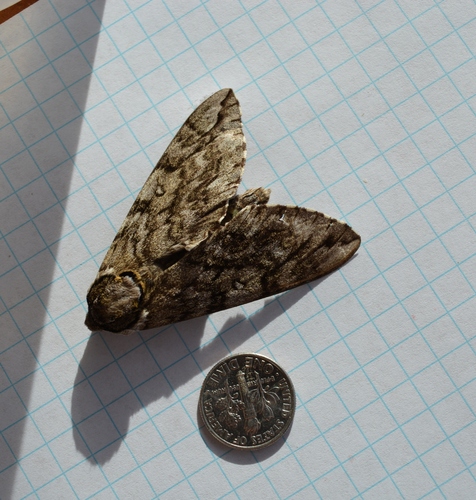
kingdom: Animalia
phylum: Arthropoda
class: Insecta
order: Lepidoptera
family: Sphingidae
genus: Ceratomia
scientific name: Ceratomia undulosa
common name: Waved sphinx
